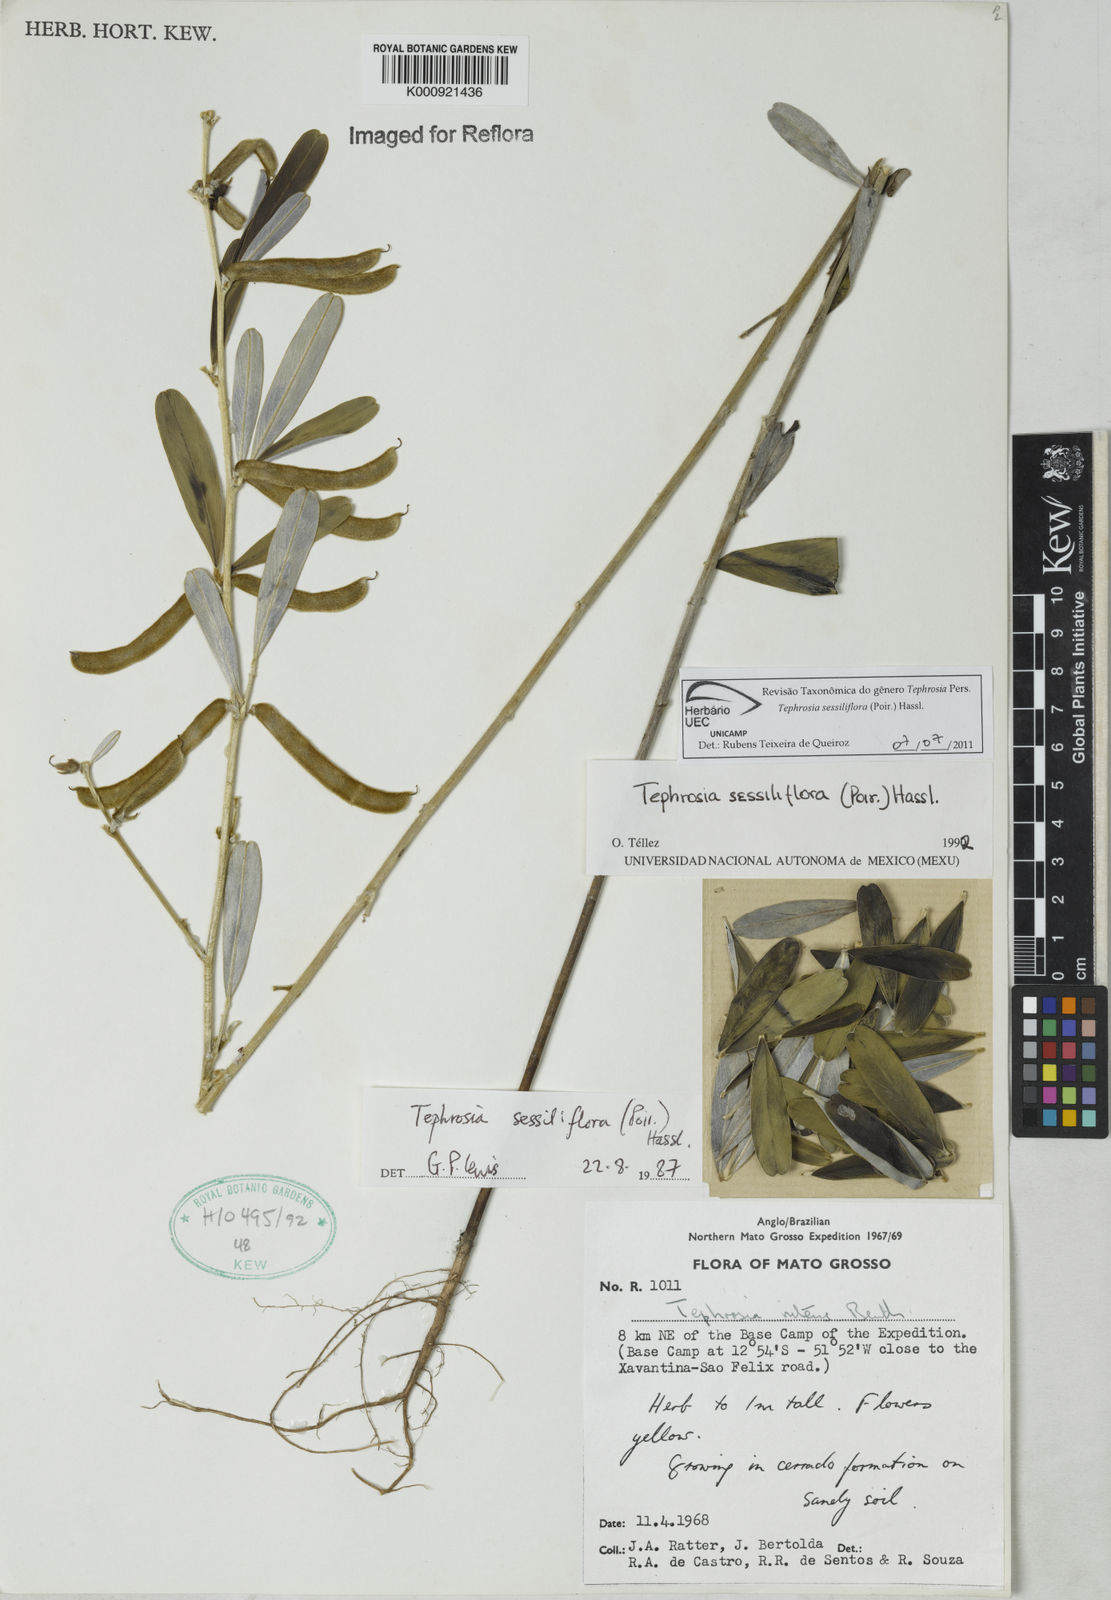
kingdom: Plantae
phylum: Tracheophyta
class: Magnoliopsida
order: Fabales
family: Fabaceae
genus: Tephrosia
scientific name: Tephrosia sessiliflora
